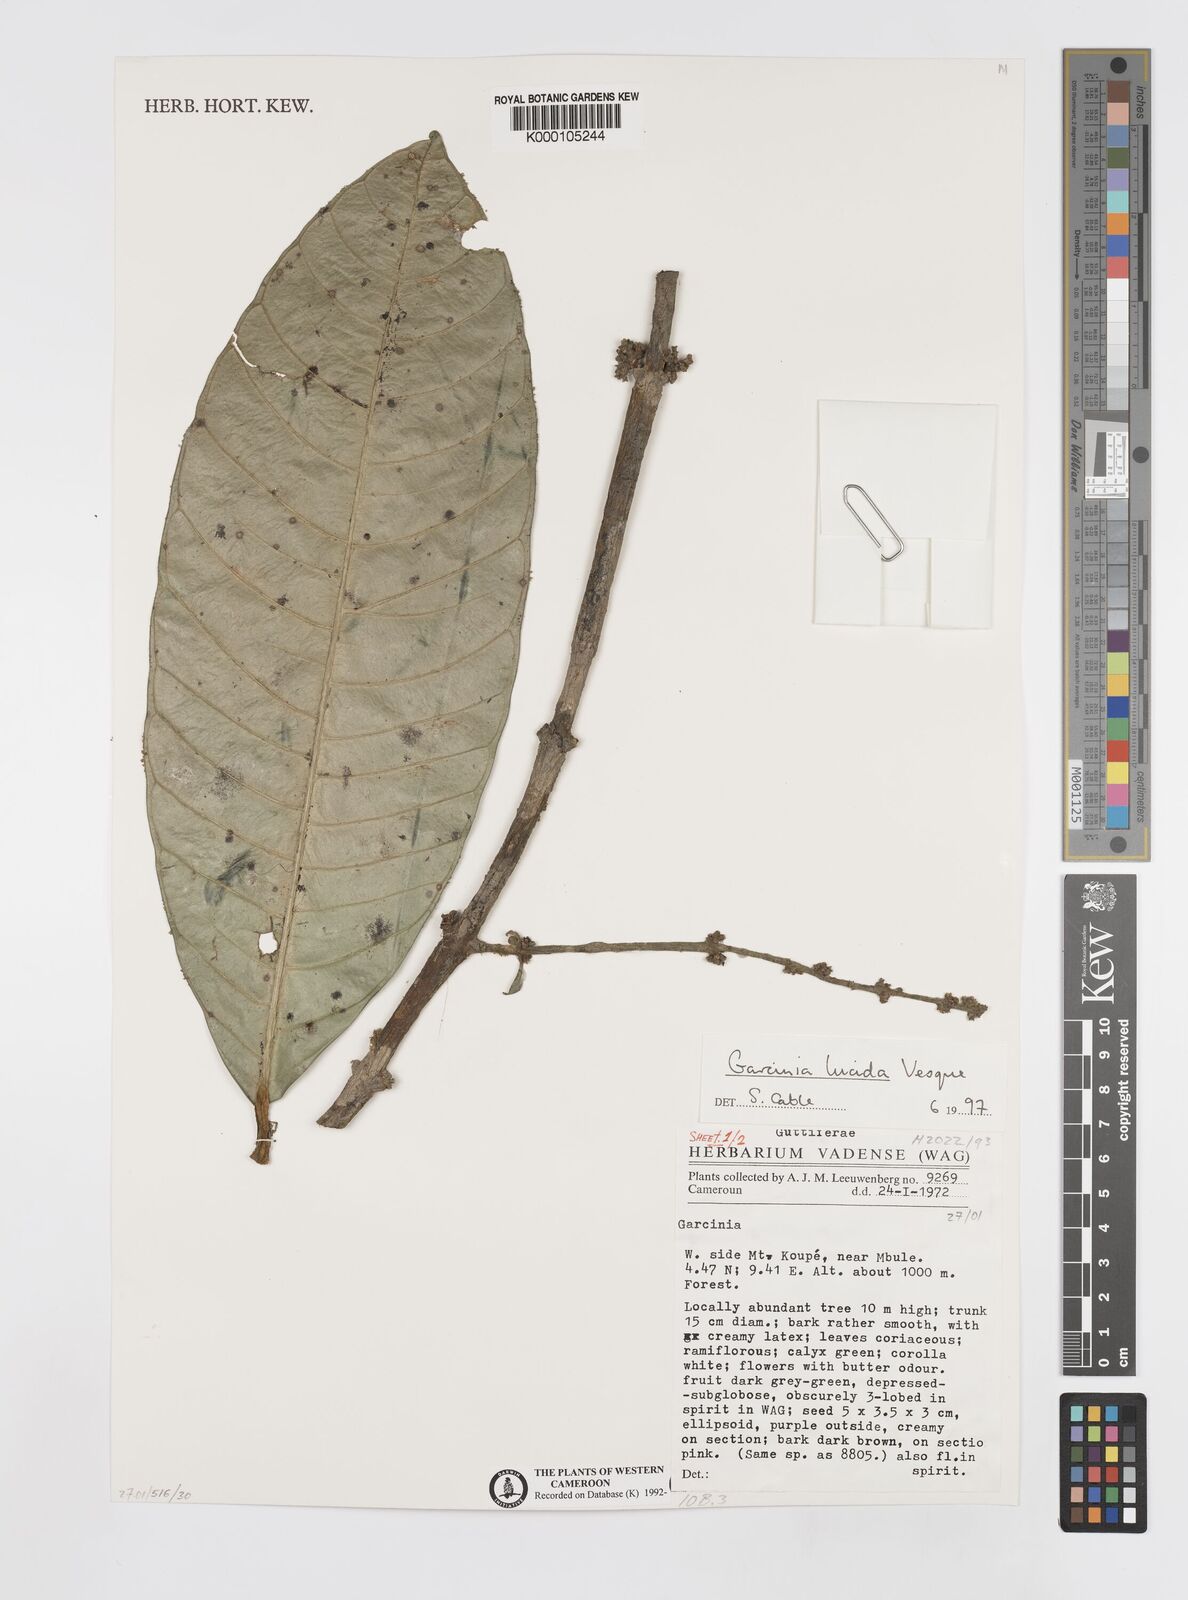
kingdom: Plantae
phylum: Tracheophyta
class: Magnoliopsida
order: Malpighiales
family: Clusiaceae
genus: Garcinia
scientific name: Garcinia lucida
